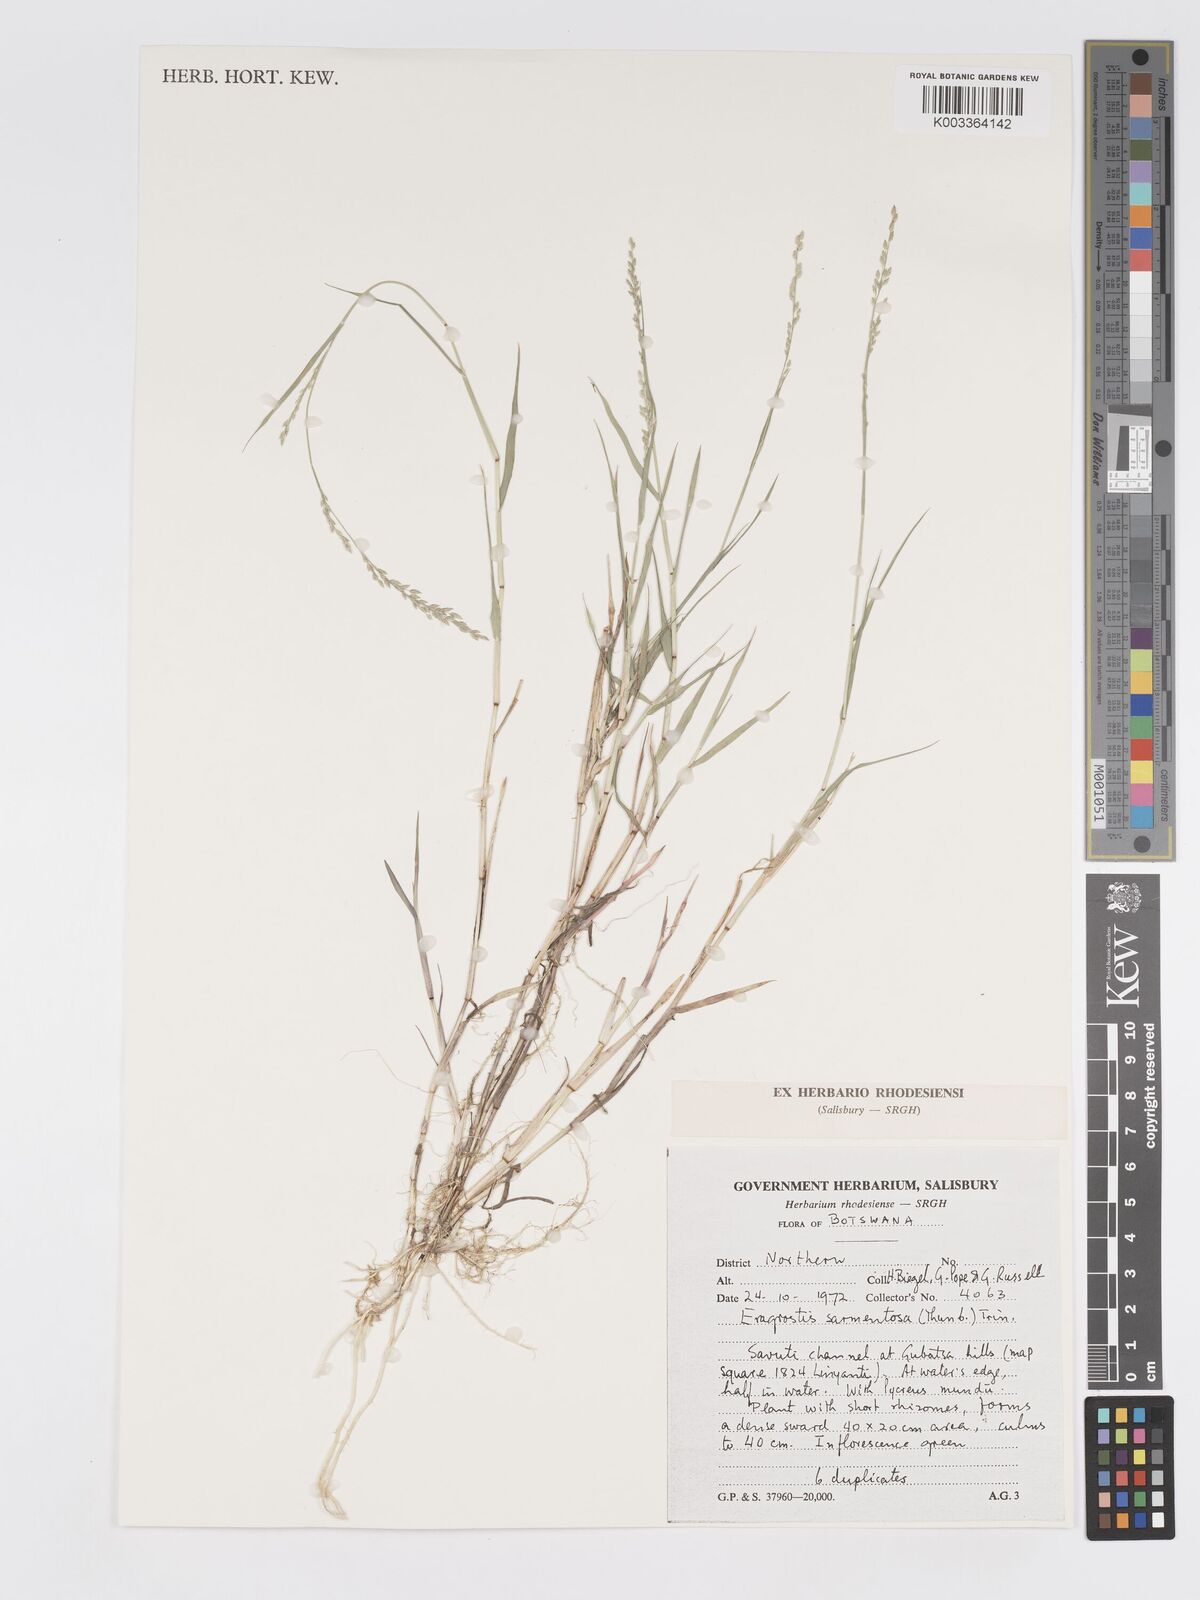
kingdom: Plantae
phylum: Tracheophyta
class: Liliopsida
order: Poales
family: Poaceae
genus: Eragrostis
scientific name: Eragrostis sarmentosa
